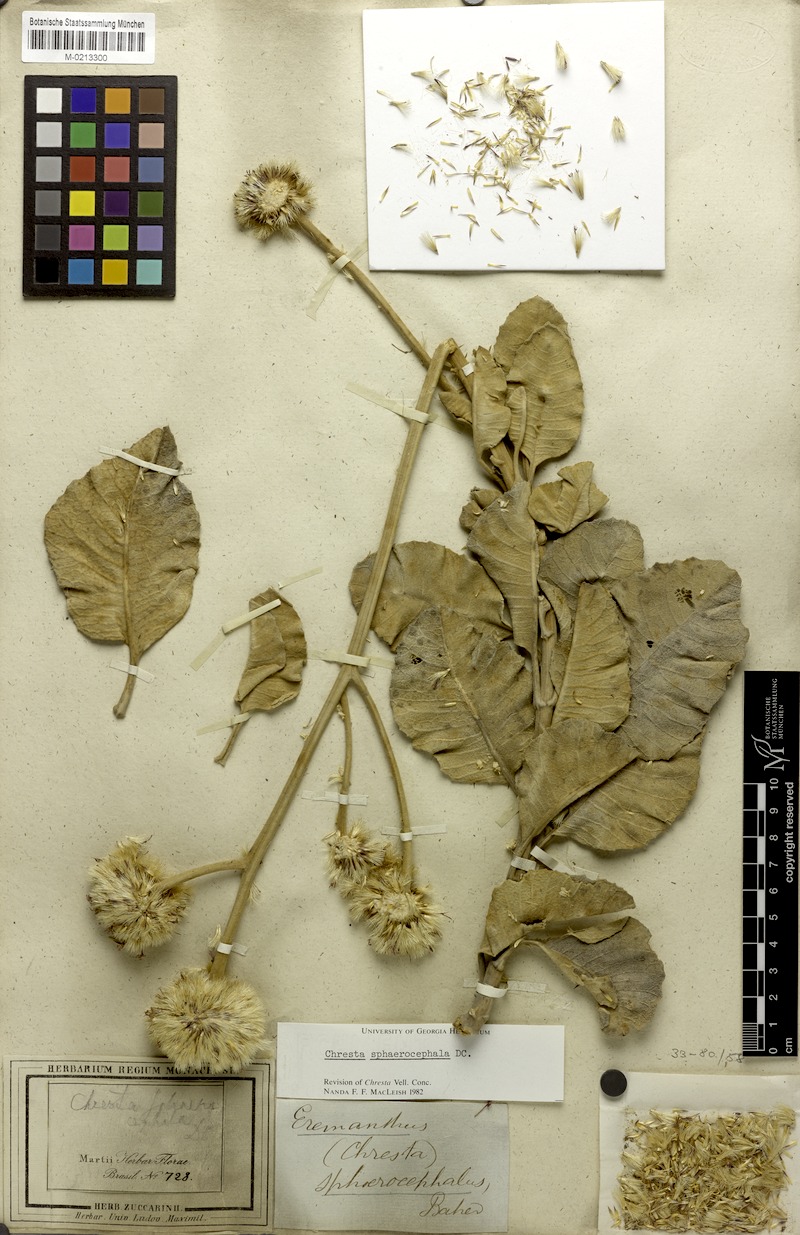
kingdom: Plantae
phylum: Tracheophyta
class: Magnoliopsida
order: Asterales
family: Asteraceae
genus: Chresta
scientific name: Chresta sphaerocephala
